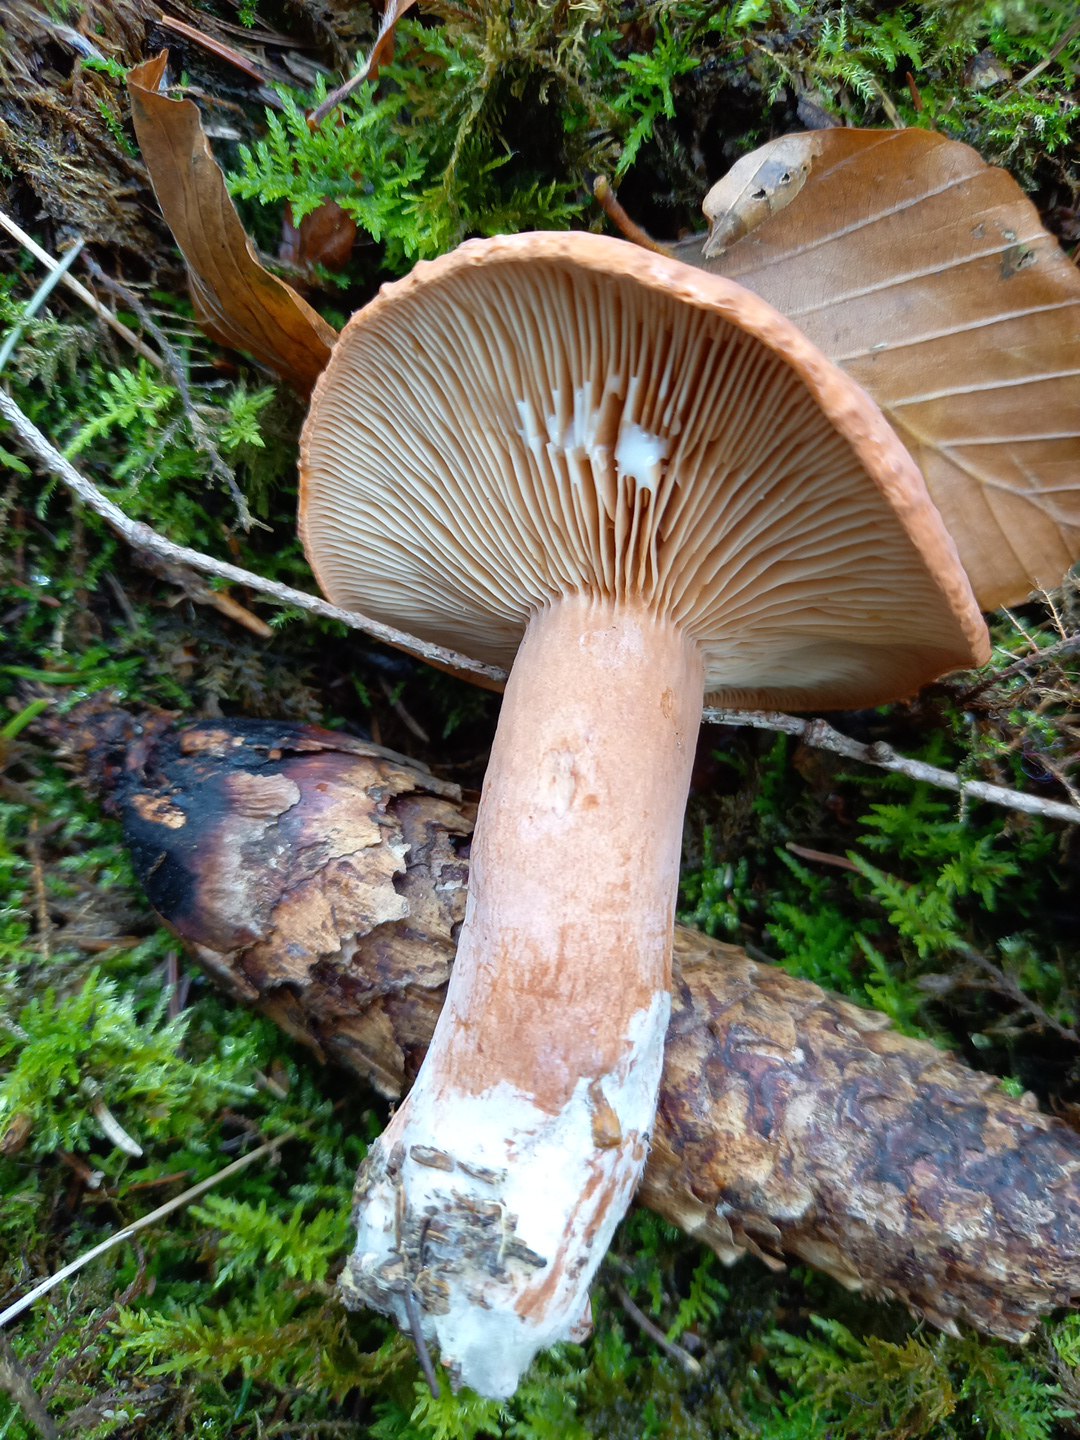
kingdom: Fungi
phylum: Basidiomycota
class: Agaricomycetes
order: Russulales
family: Russulaceae
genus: Lactarius
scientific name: Lactarius
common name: mælkehat
